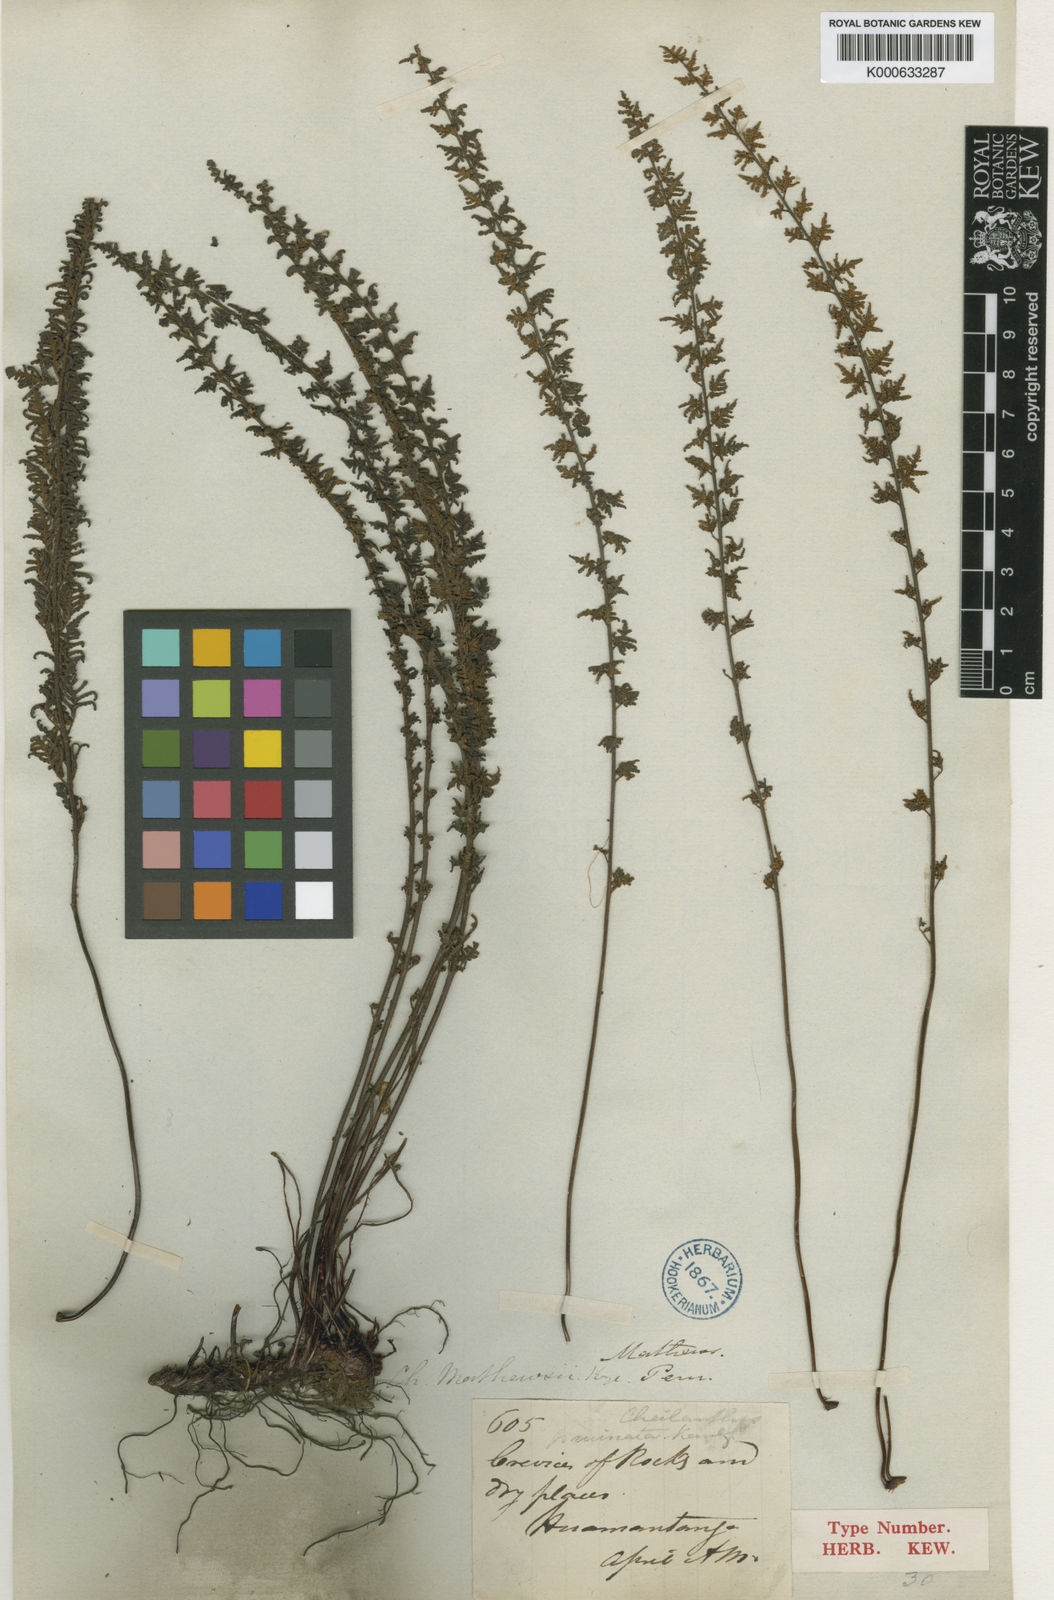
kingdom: Plantae
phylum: Tracheophyta
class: Polypodiopsida
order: Polypodiales
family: Pteridaceae
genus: Cheilanthes
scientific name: Cheilanthes pruinata
